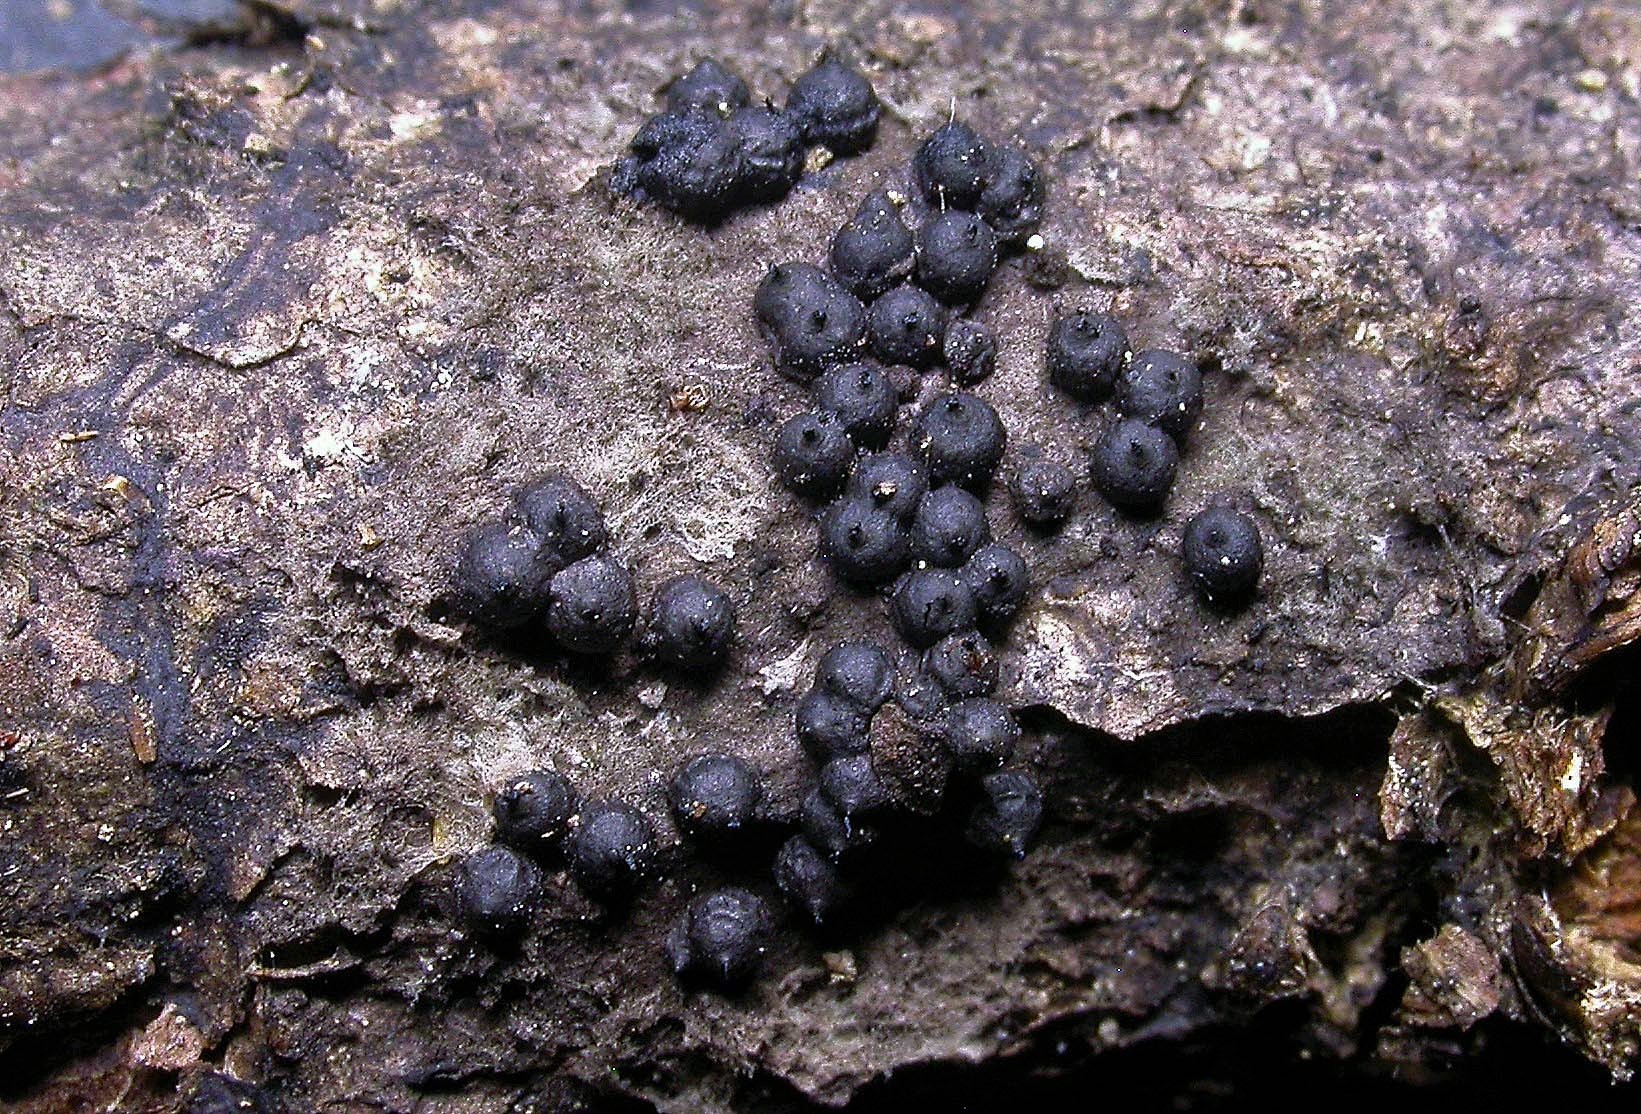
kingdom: Fungi
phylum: Ascomycota
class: Sordariomycetes
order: Xylariales
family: Xylariaceae
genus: Rosellinia
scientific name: Rosellinia
